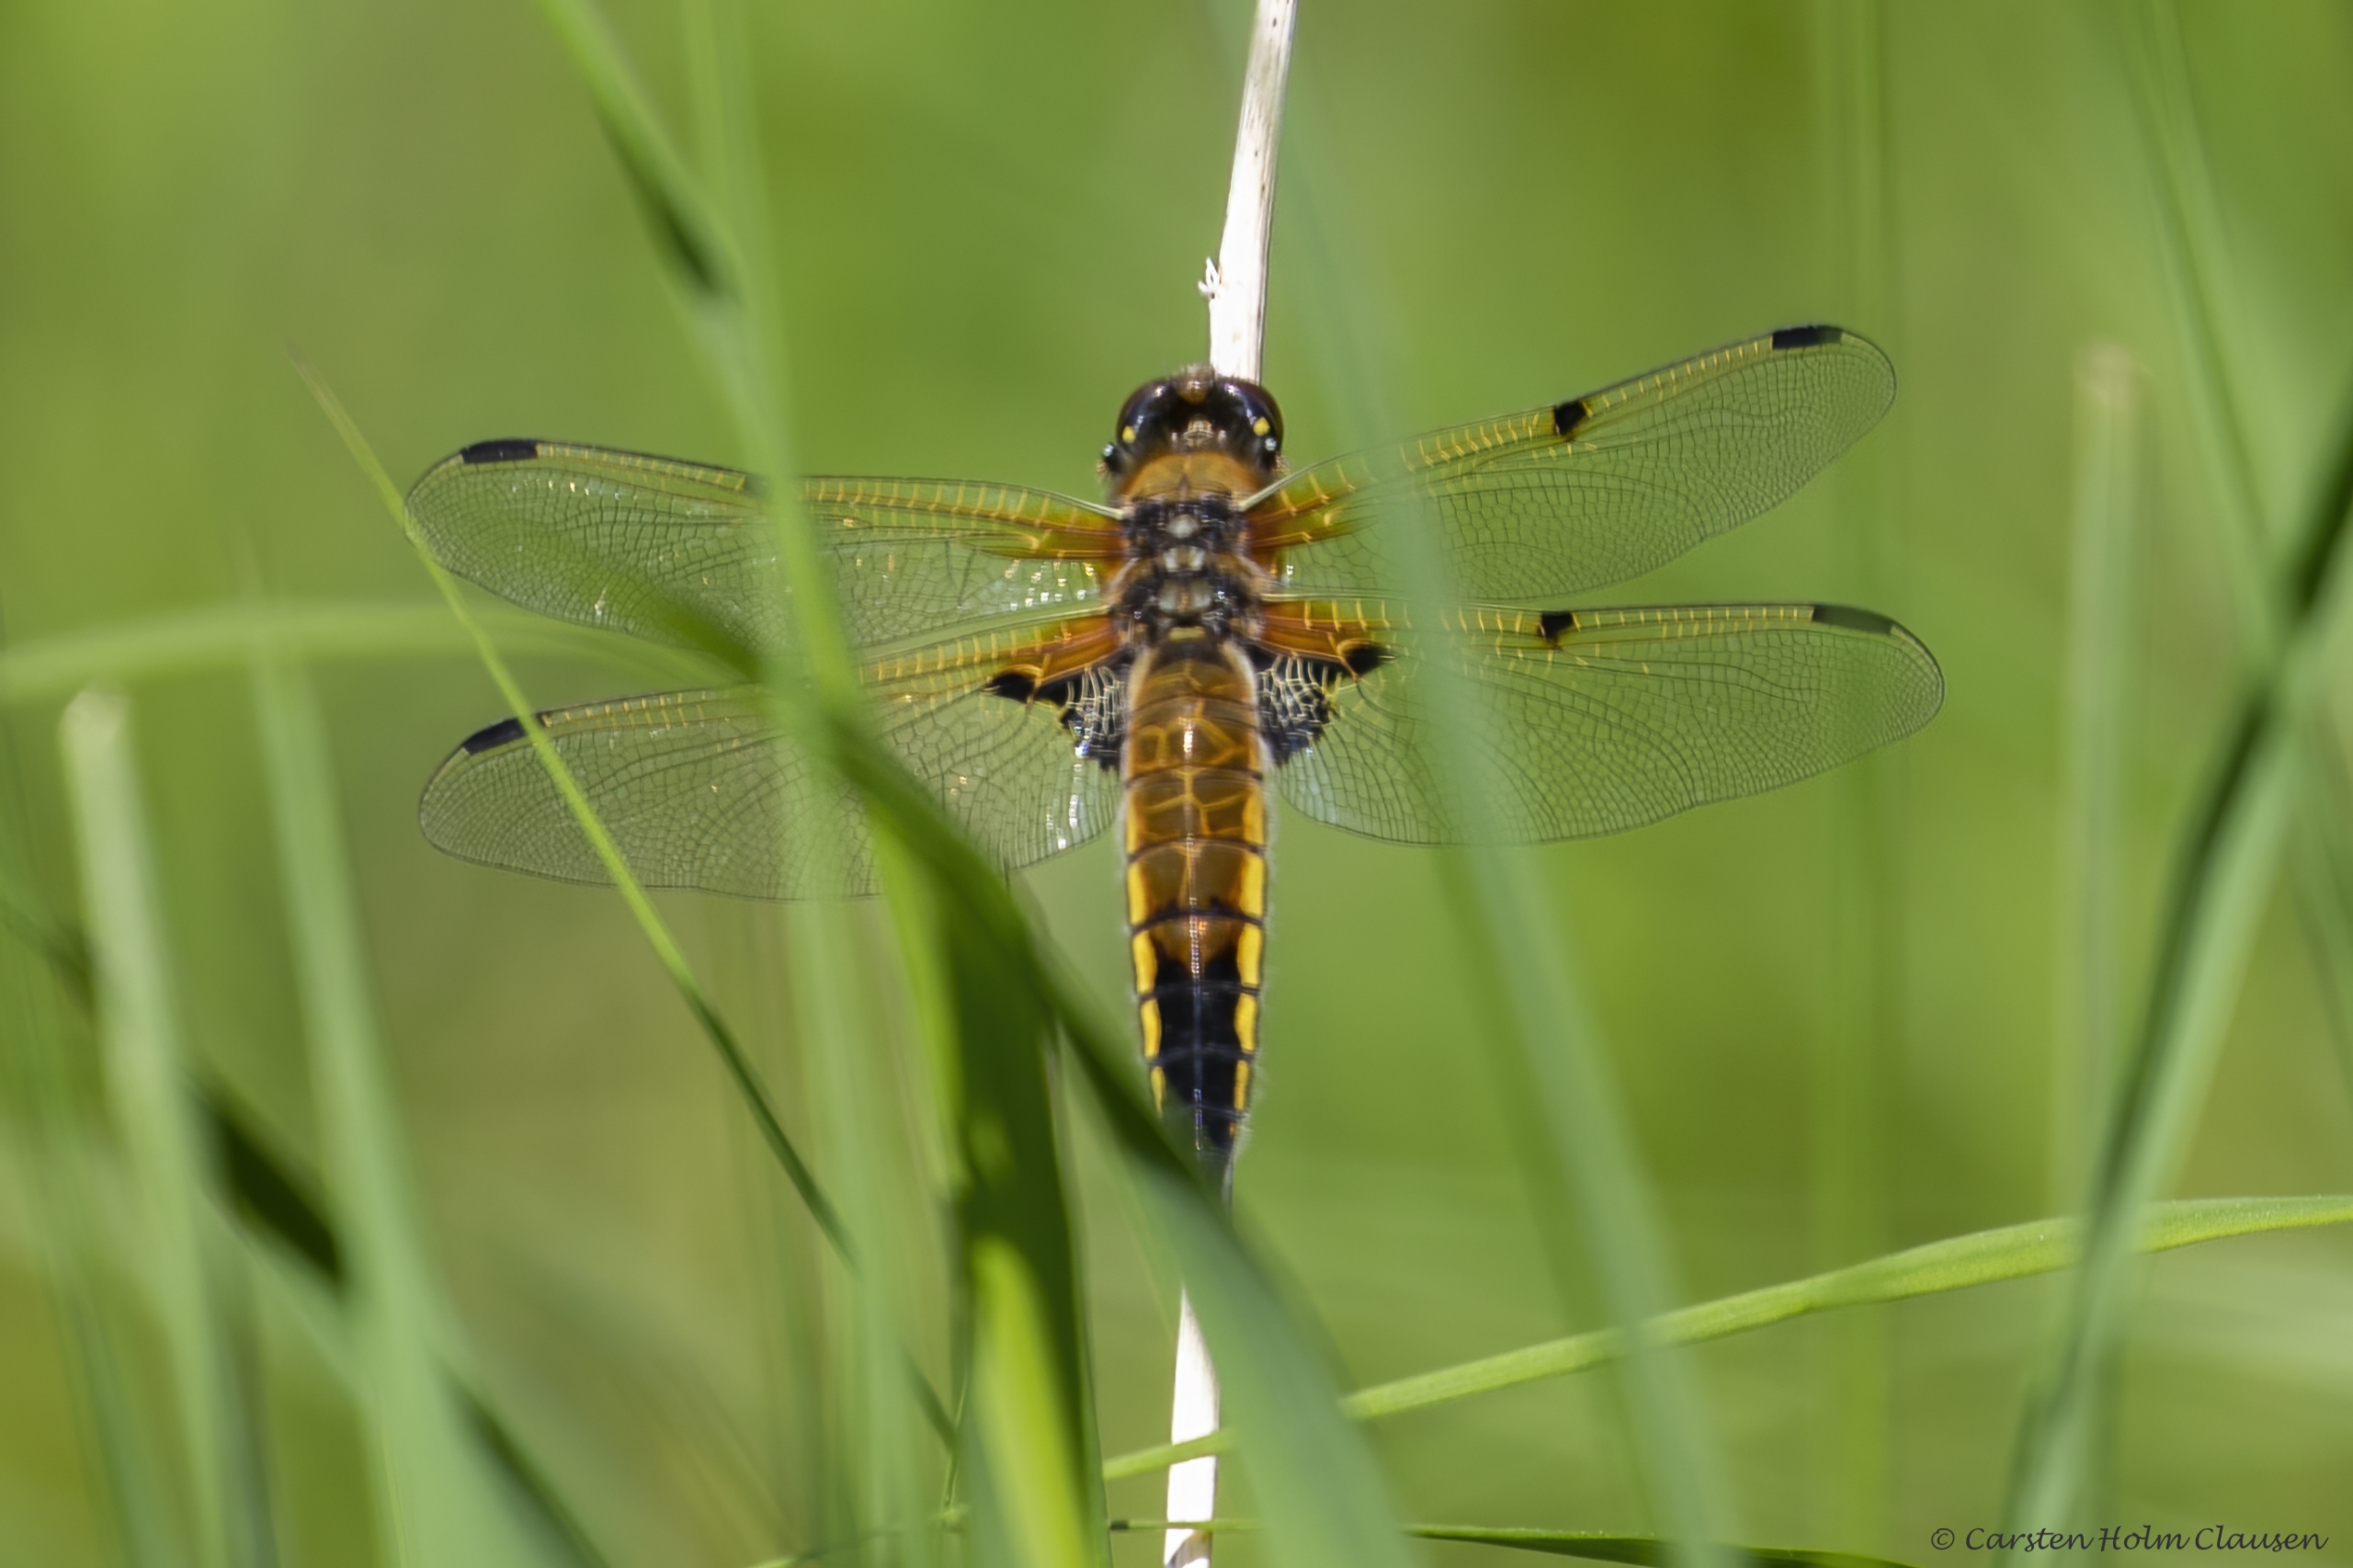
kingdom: Animalia
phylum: Arthropoda
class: Insecta
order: Odonata
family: Libellulidae
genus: Libellula
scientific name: Libellula quadrimaculata
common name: Fireplettet libel
